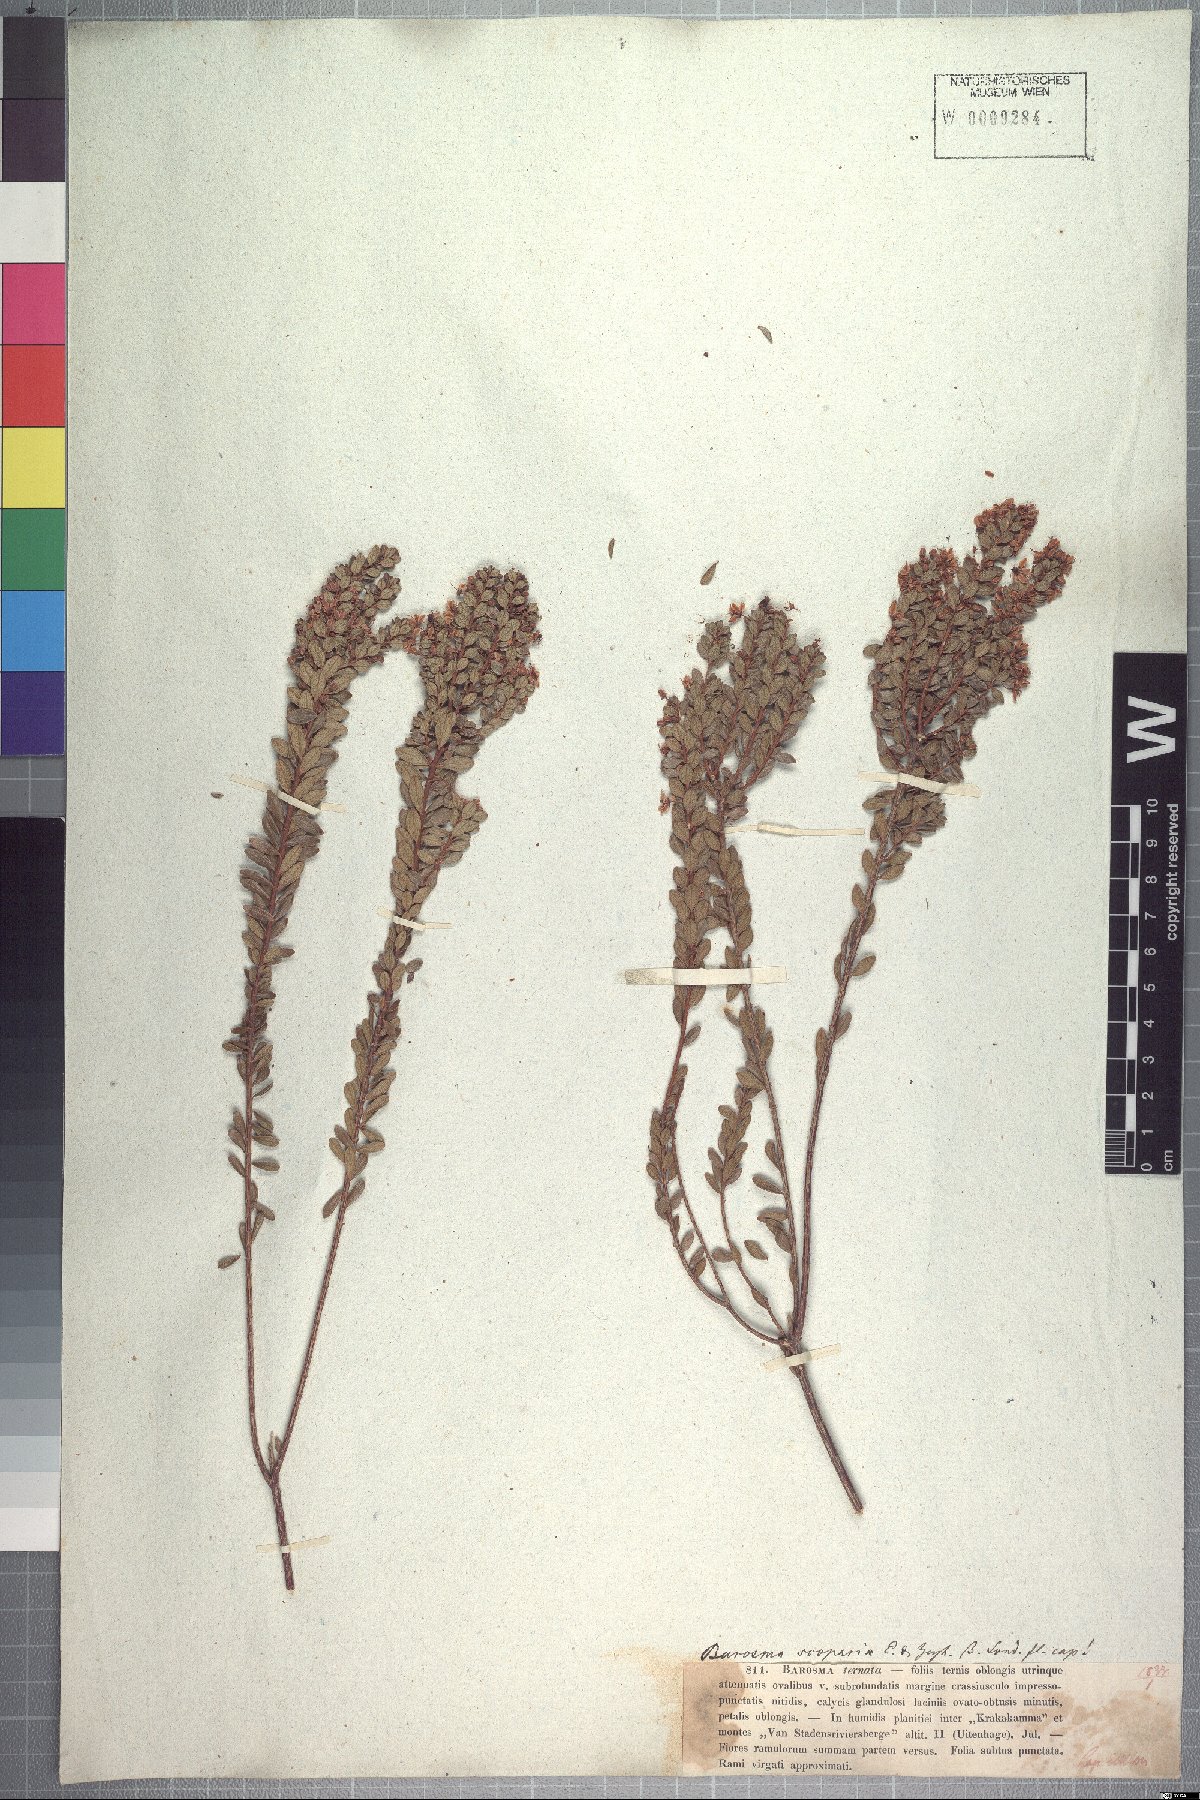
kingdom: Plantae
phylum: Tracheophyta
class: Magnoliopsida
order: Sapindales
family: Rutaceae
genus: Agathosma
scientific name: Agathosma ovata
